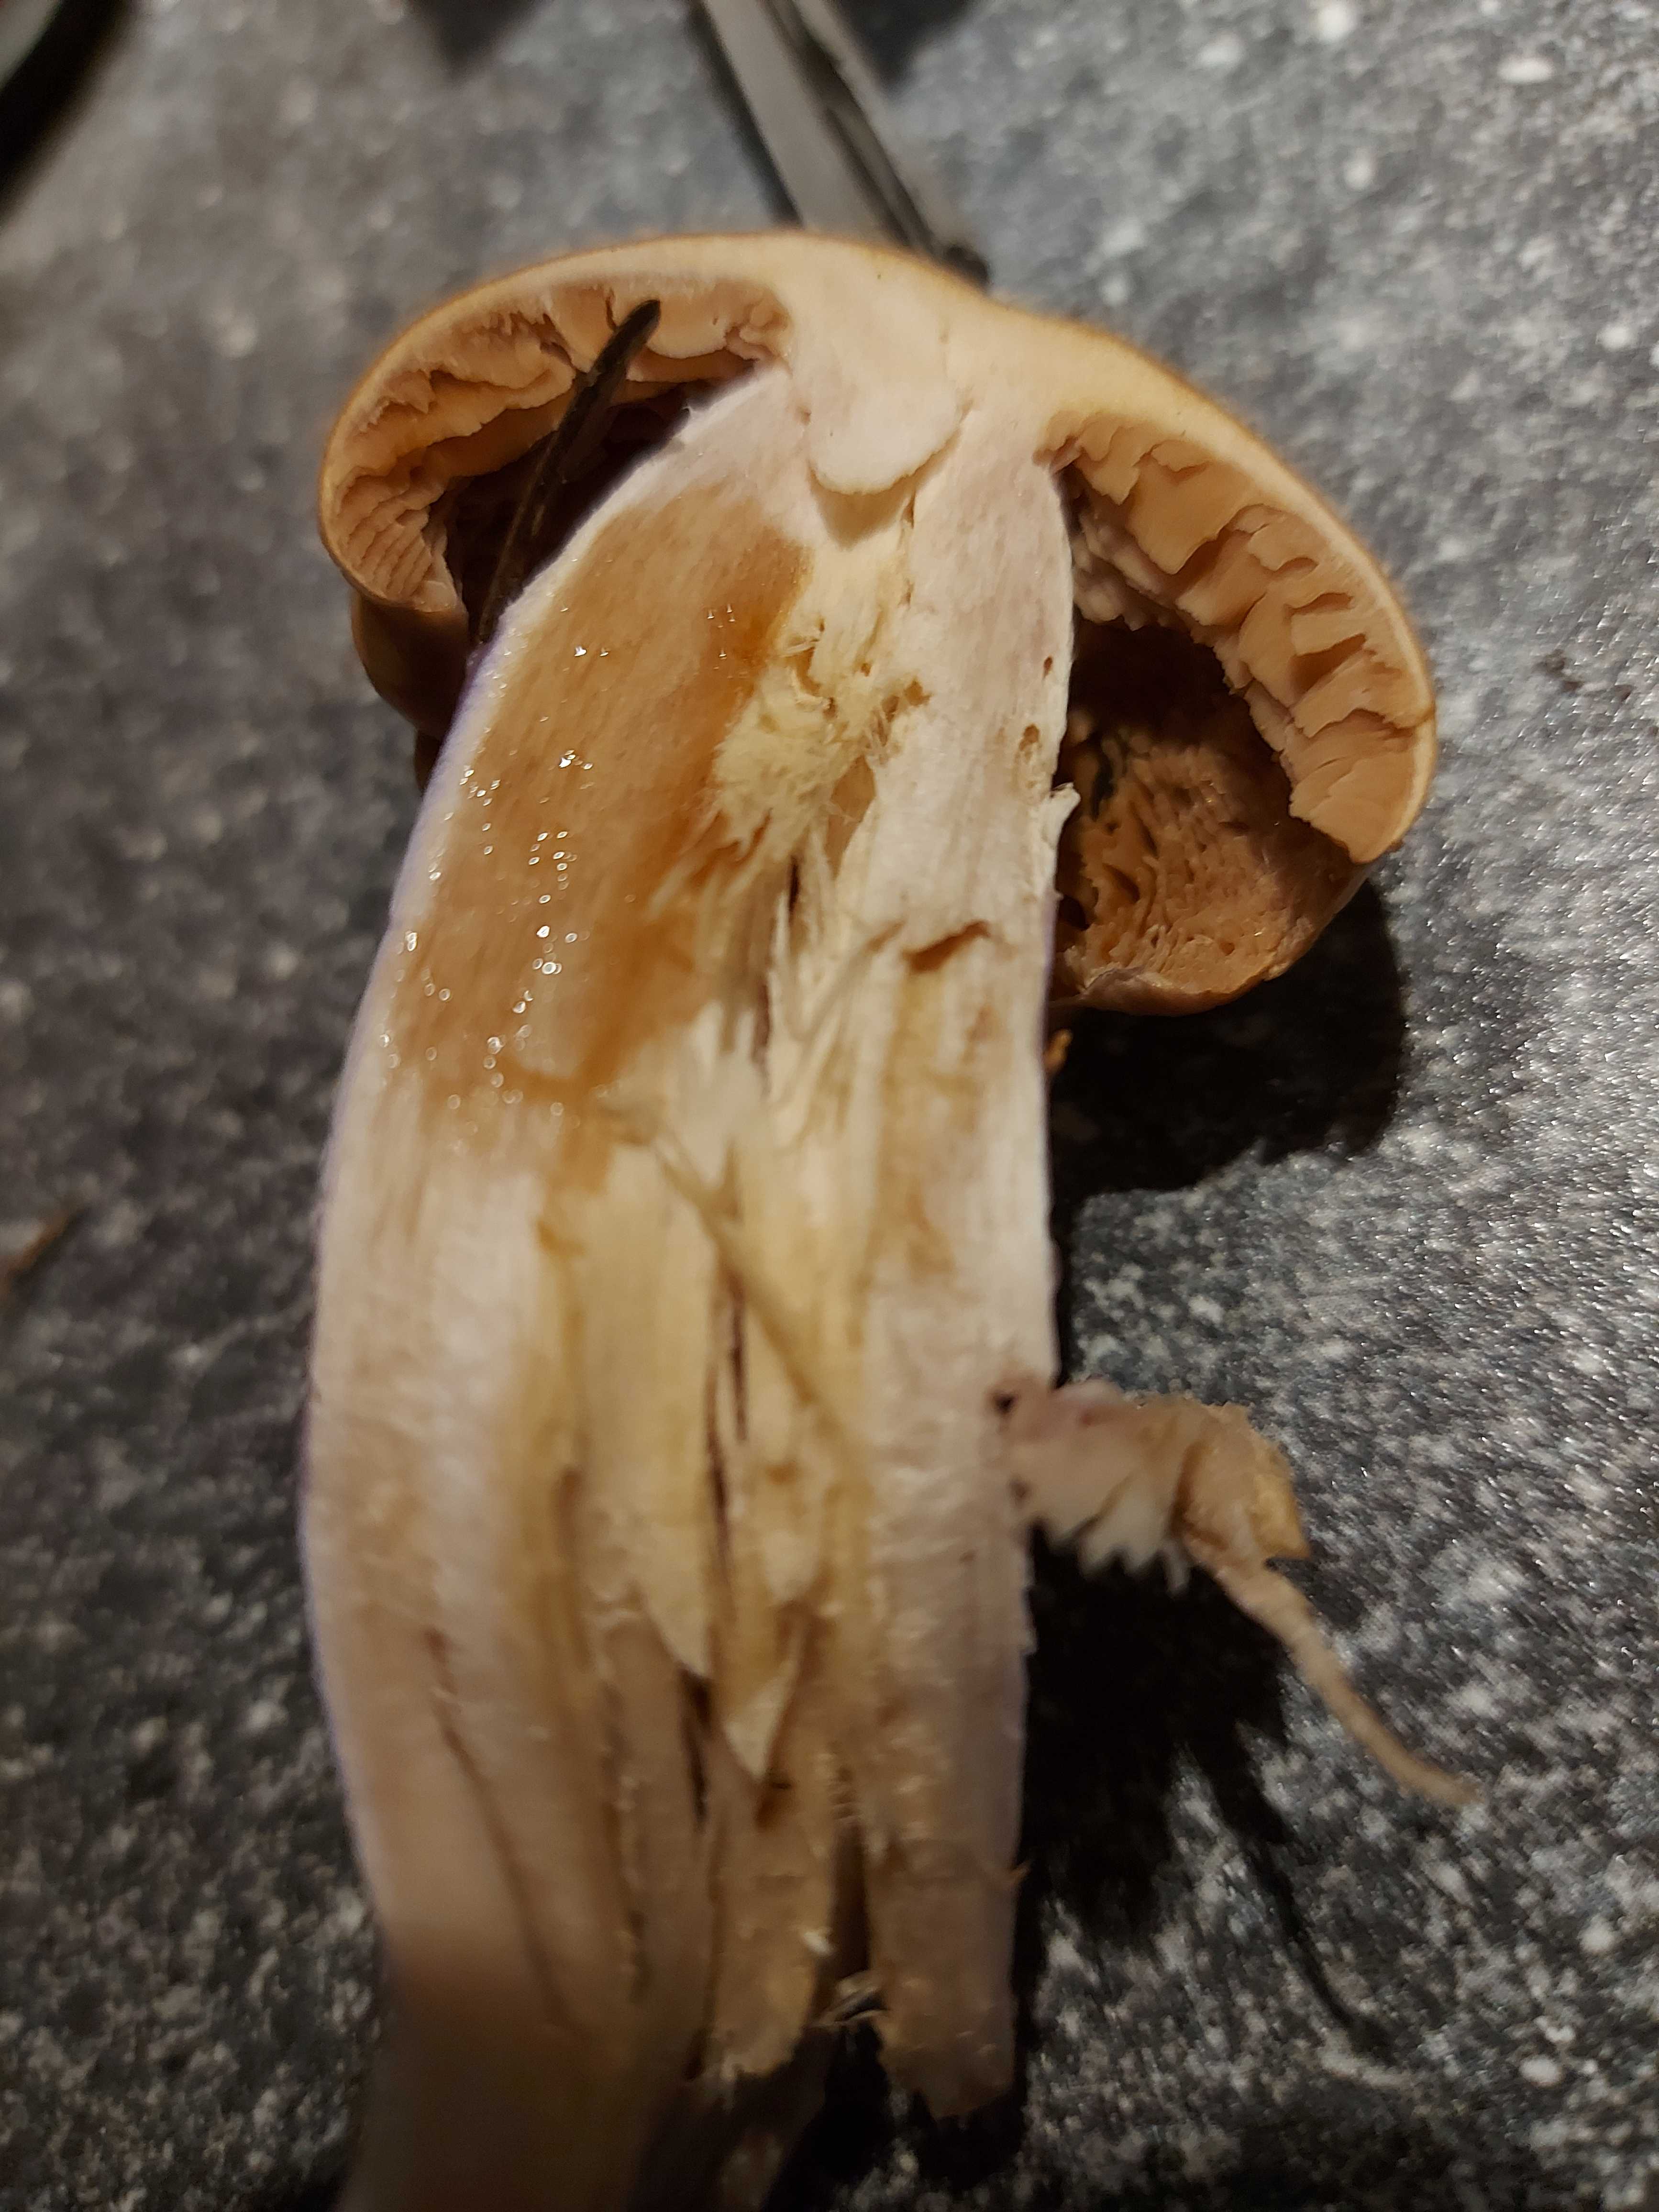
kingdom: Fungi
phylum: Basidiomycota
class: Agaricomycetes
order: Agaricales
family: Cortinariaceae
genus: Cortinarius
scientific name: Cortinarius stillatitius
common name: honningduftende slørhat
